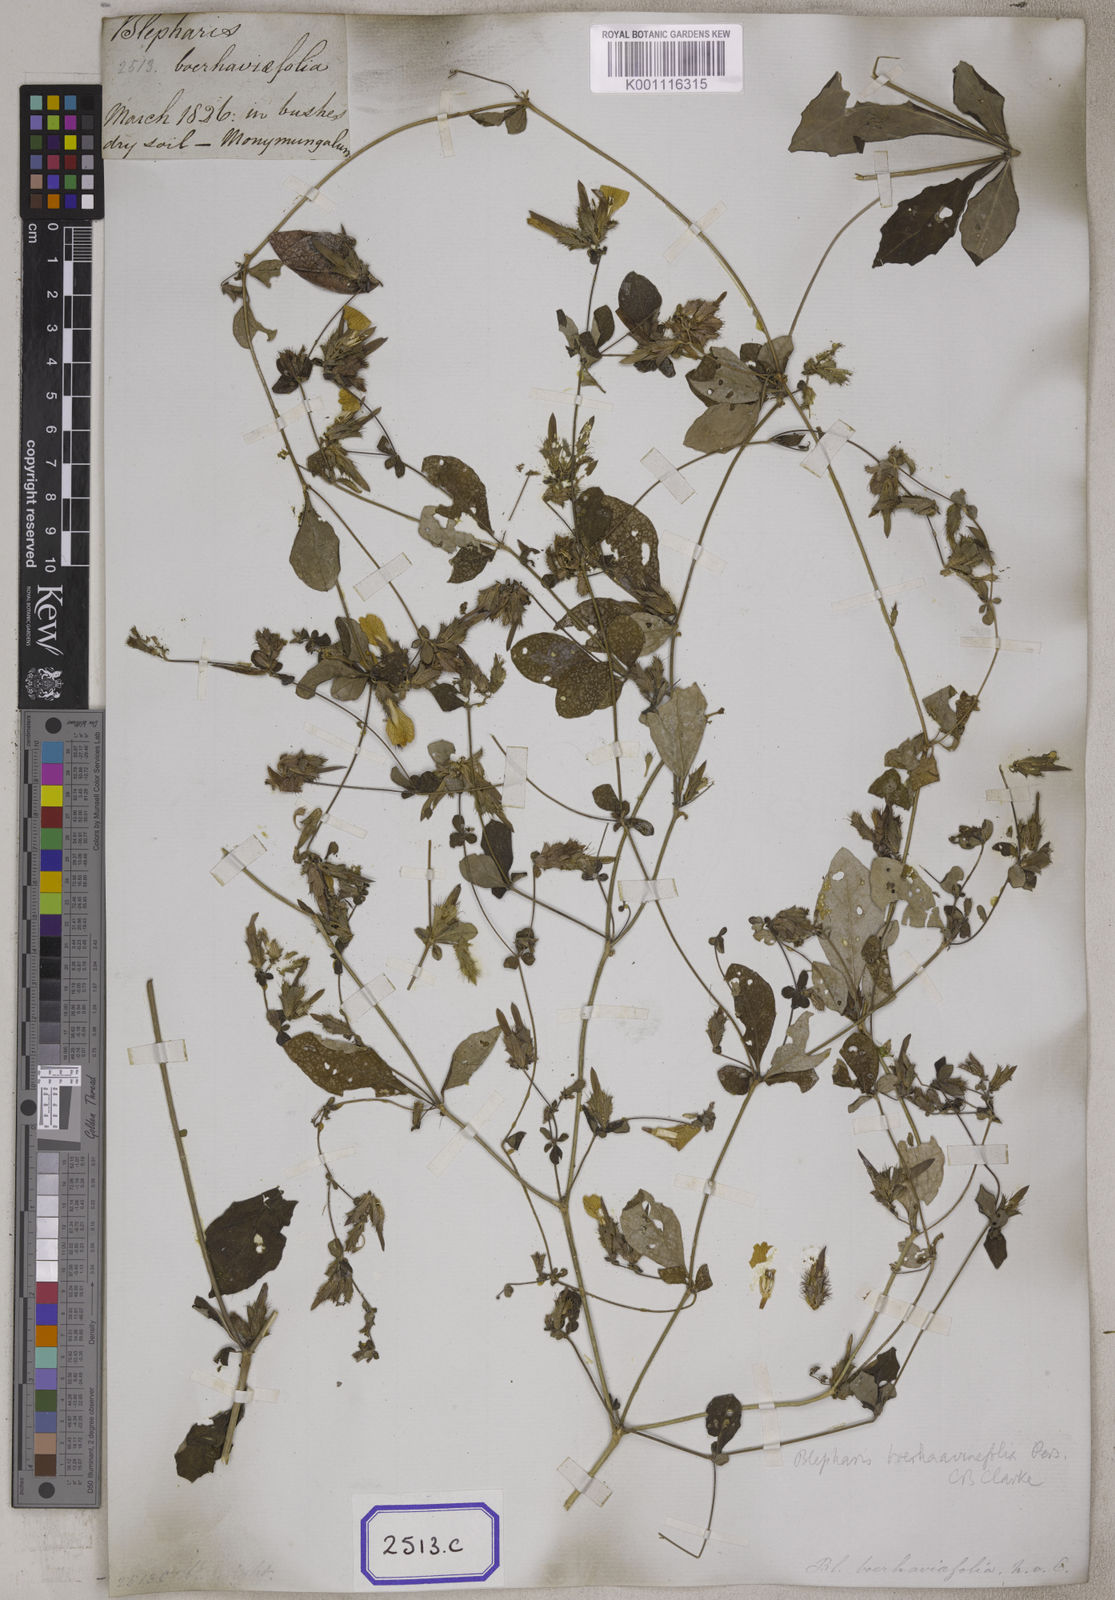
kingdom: Plantae
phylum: Tracheophyta
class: Magnoliopsida
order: Lamiales
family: Acanthaceae
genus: Blepharis
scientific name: Blepharis
